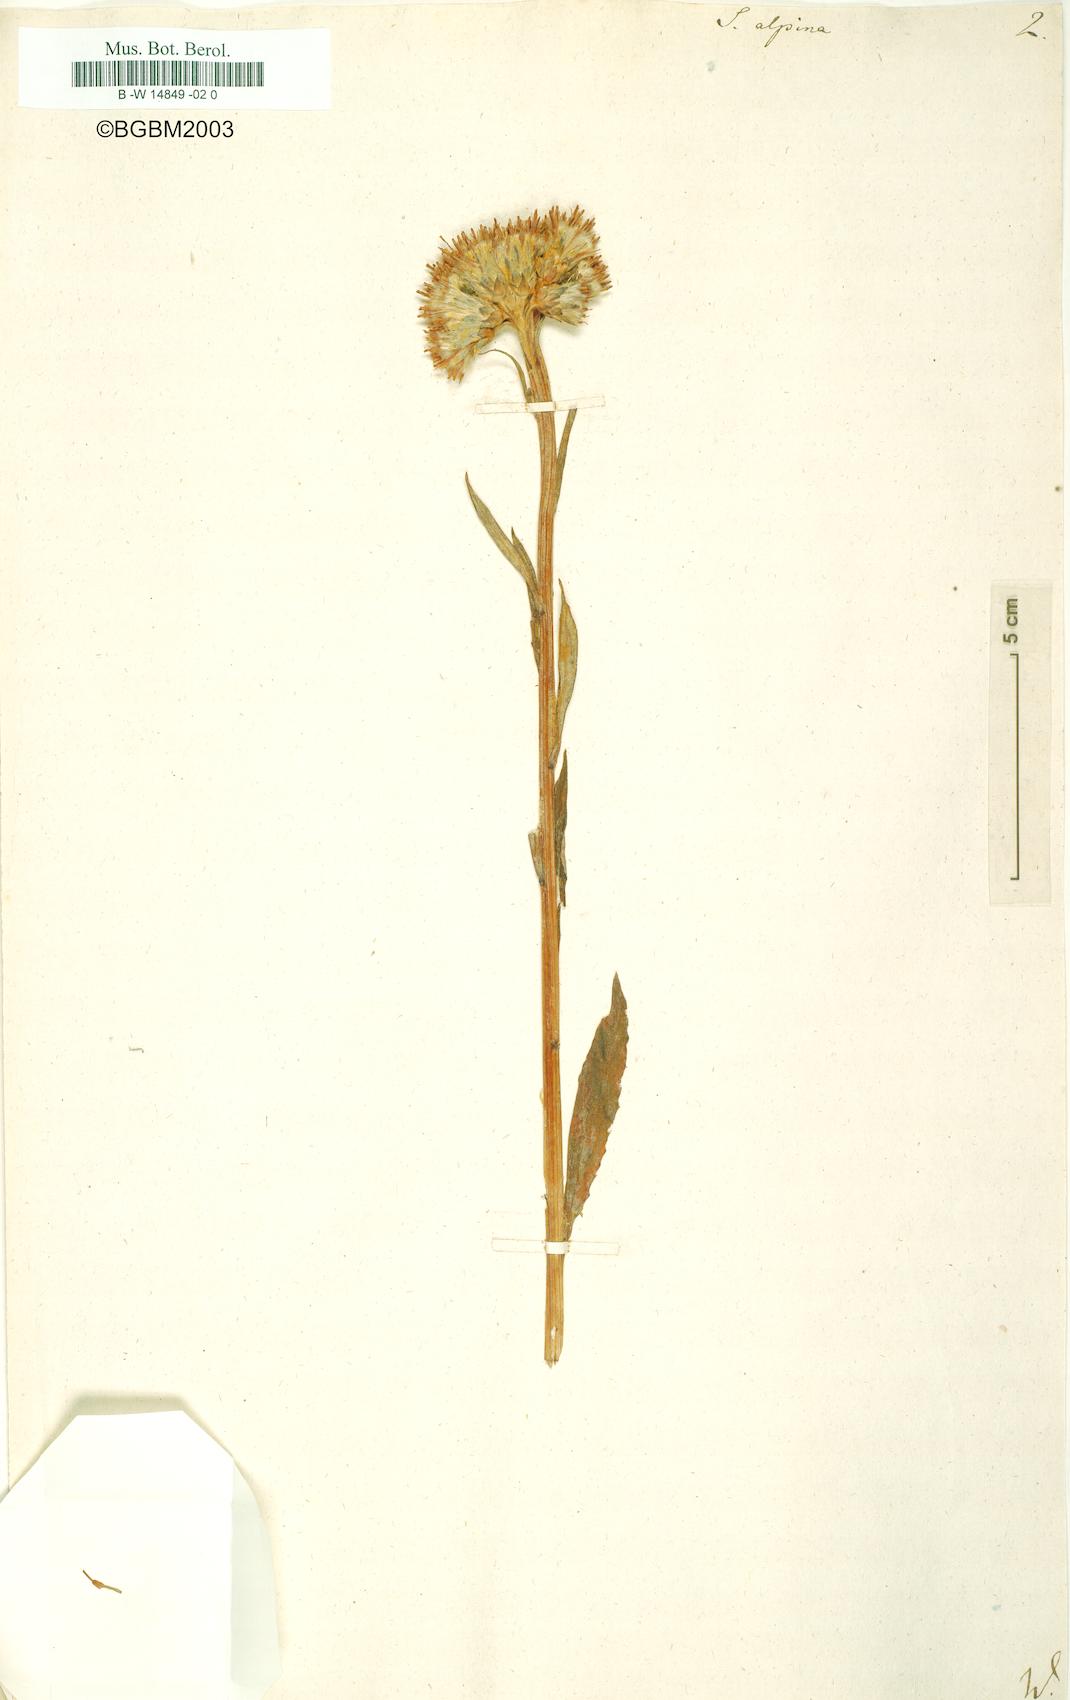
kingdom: Plantae
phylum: Tracheophyta
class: Magnoliopsida
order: Asterales
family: Asteraceae
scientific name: Asteraceae
